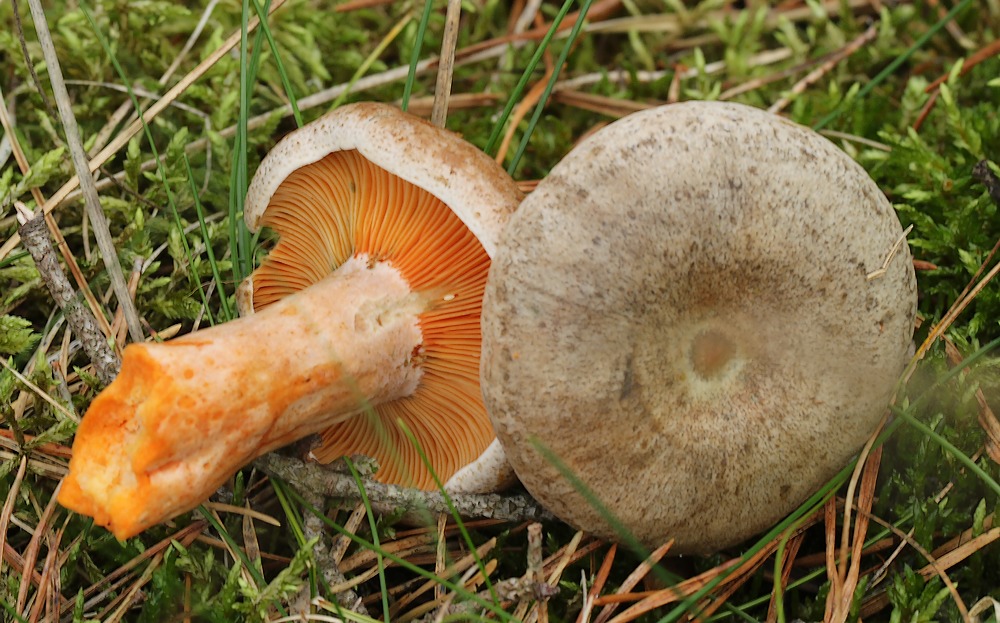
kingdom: Fungi
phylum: Basidiomycota
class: Agaricomycetes
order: Russulales
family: Russulaceae
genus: Lactarius
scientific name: Lactarius quieticolor
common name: tvefarvet mælkehat
